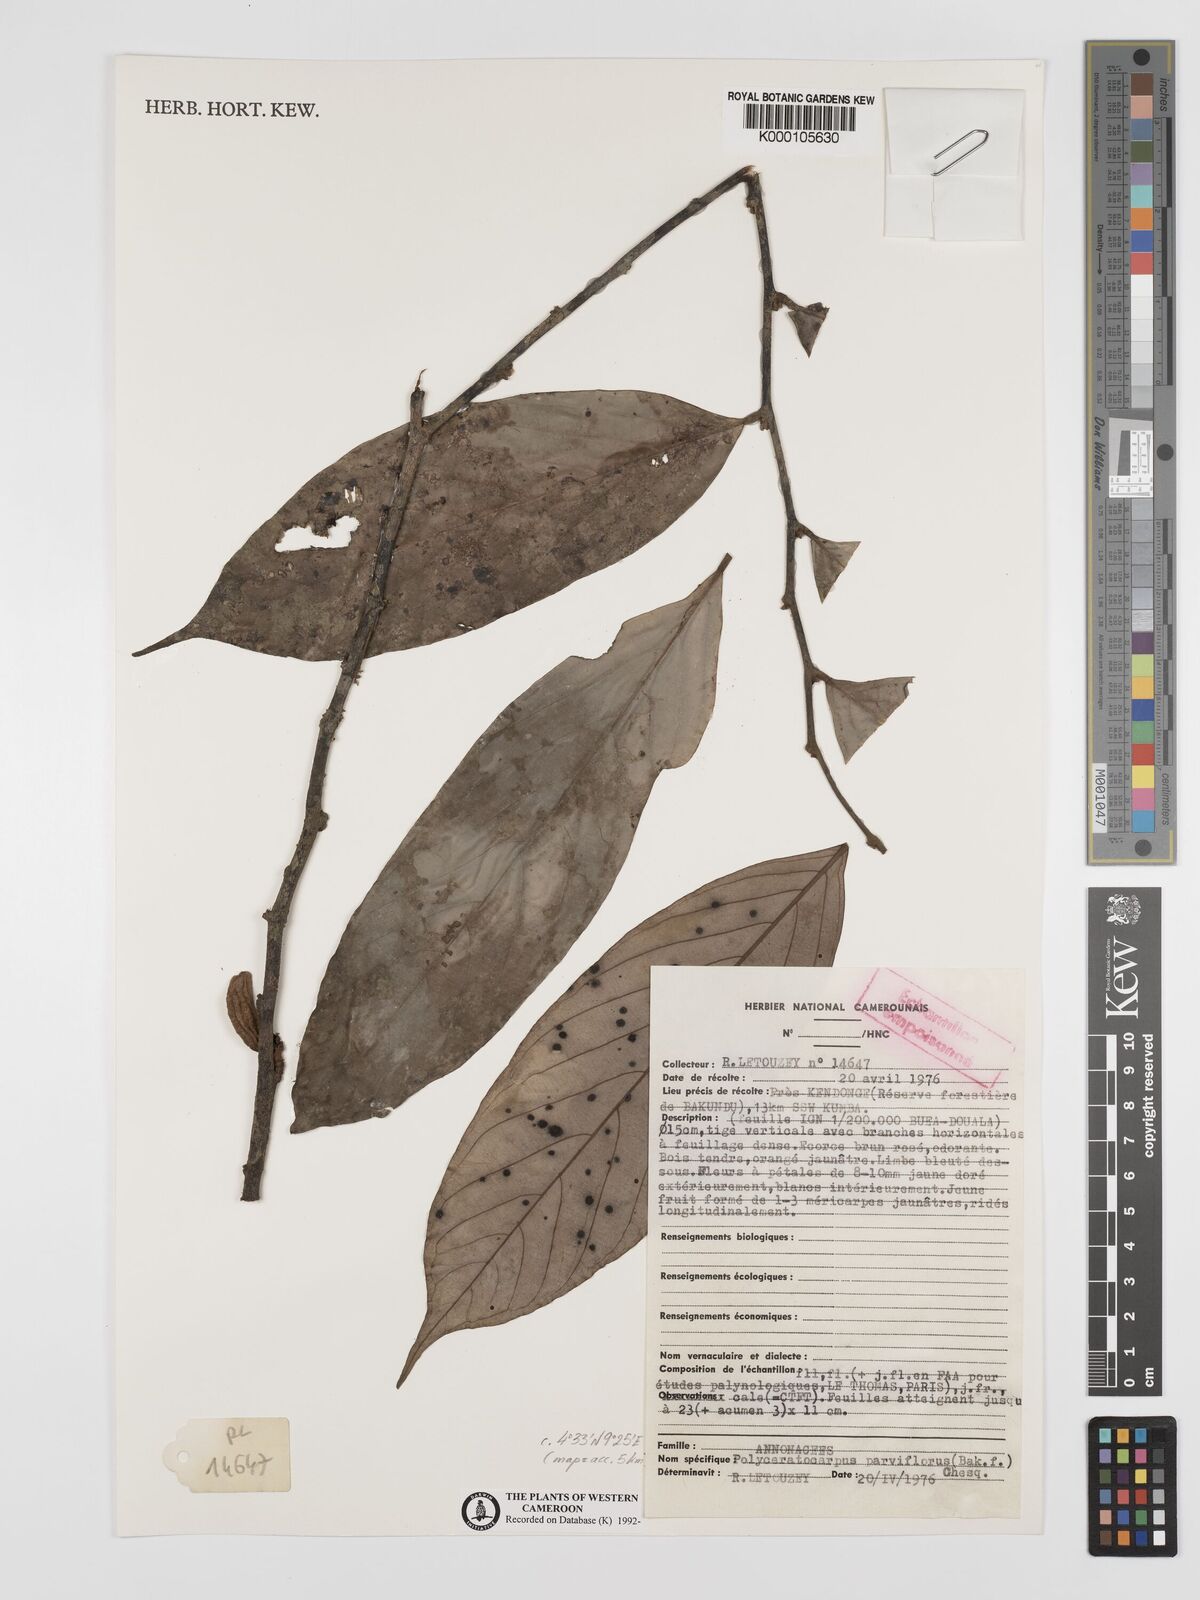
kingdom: Plantae
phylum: Tracheophyta
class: Magnoliopsida
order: Magnoliales
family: Annonaceae
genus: Polyceratocarpus
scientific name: Polyceratocarpus parviflorus
